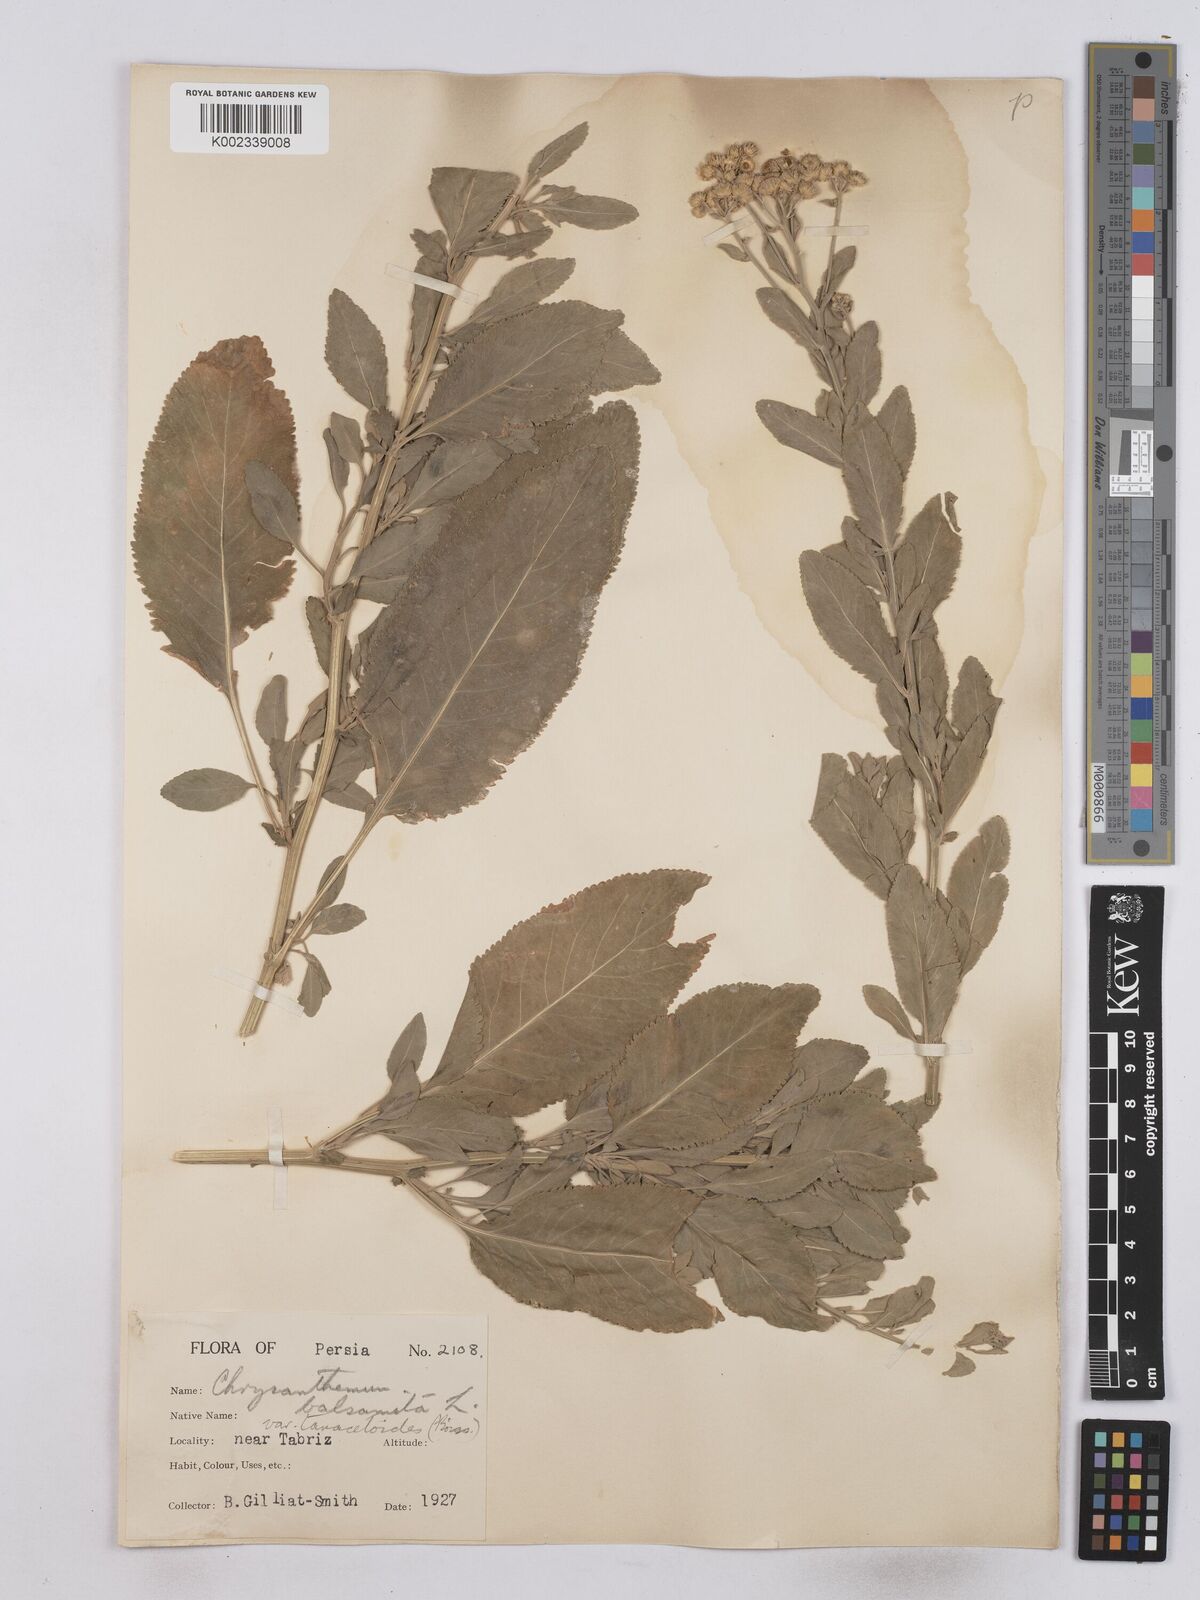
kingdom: Plantae
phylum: Tracheophyta
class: Magnoliopsida
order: Asterales
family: Asteraceae
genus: Tanacetum
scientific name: Tanacetum balsamita
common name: Costmary
